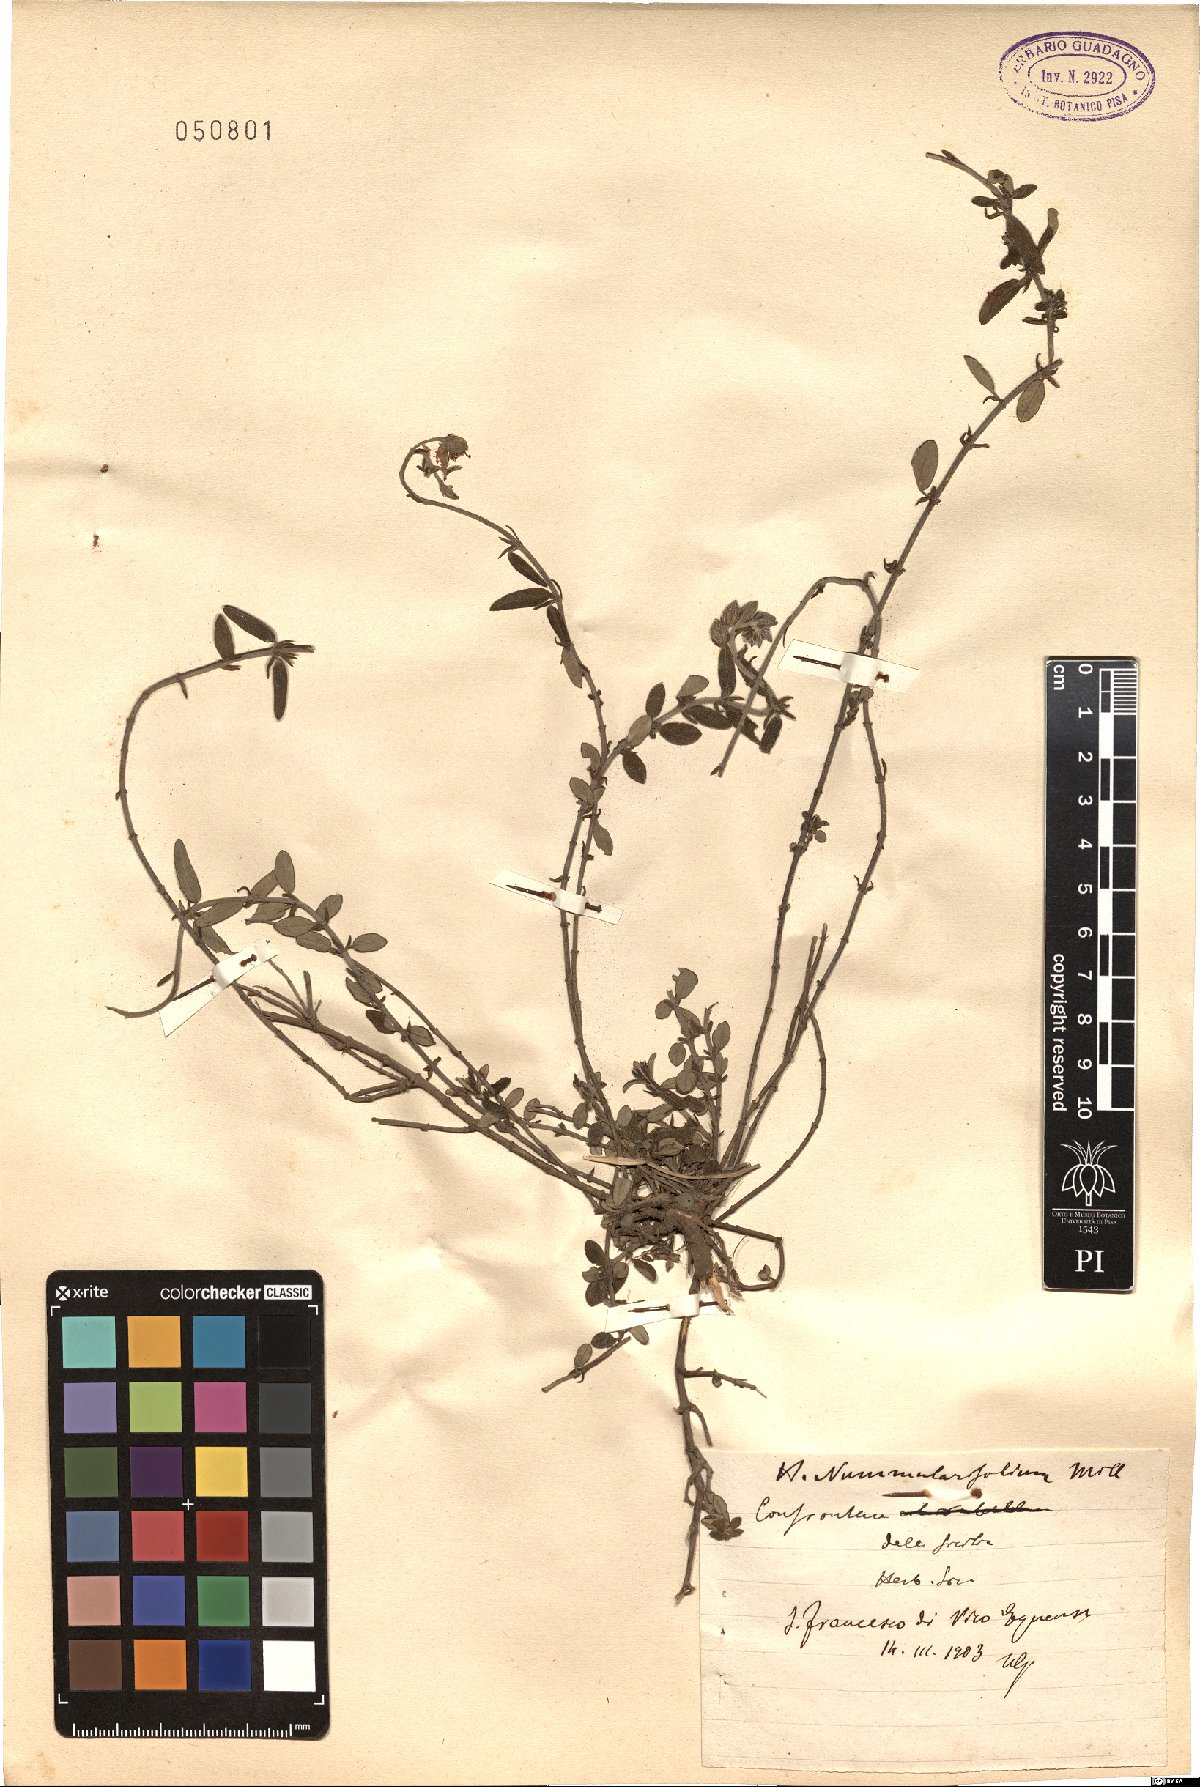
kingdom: Plantae
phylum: Tracheophyta
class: Magnoliopsida
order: Malvales
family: Cistaceae
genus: Helianthemum
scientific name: Helianthemum cinereum
